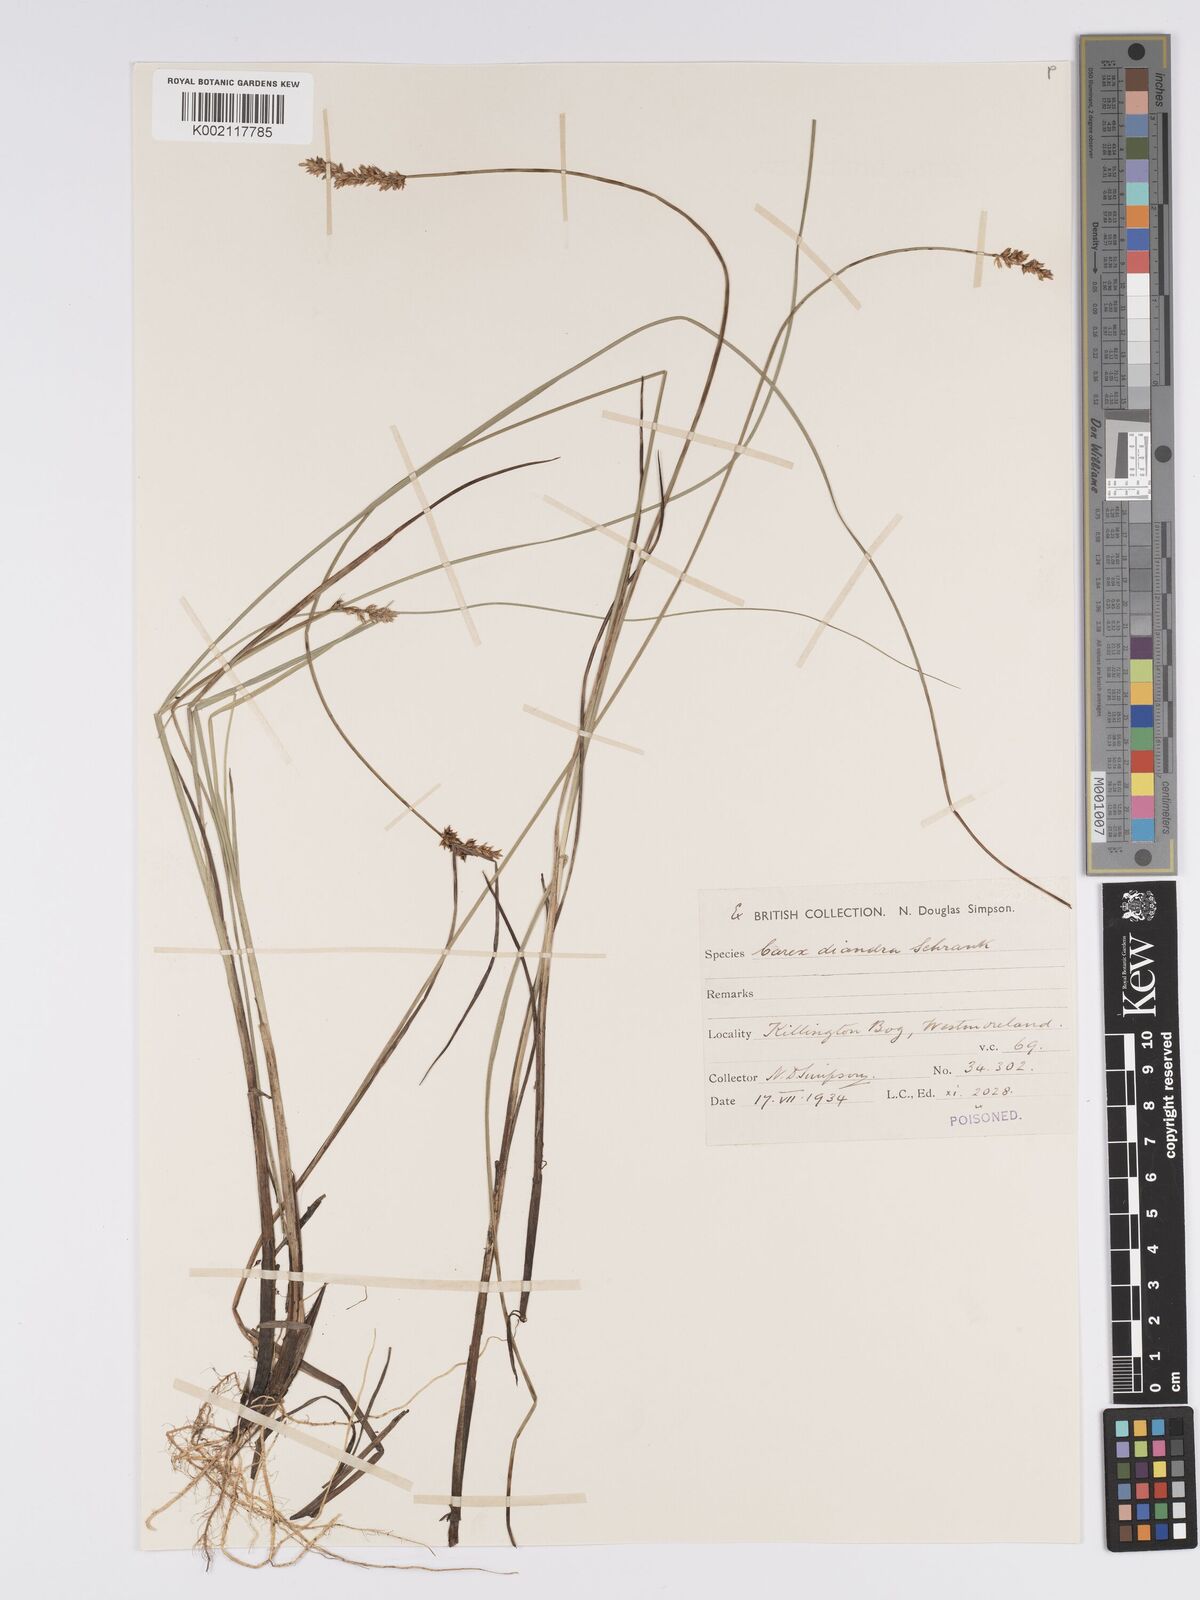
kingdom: Plantae
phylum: Tracheophyta
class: Liliopsida
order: Poales
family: Cyperaceae
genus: Carex
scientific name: Carex diandra
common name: Lesser tussock-sedge
